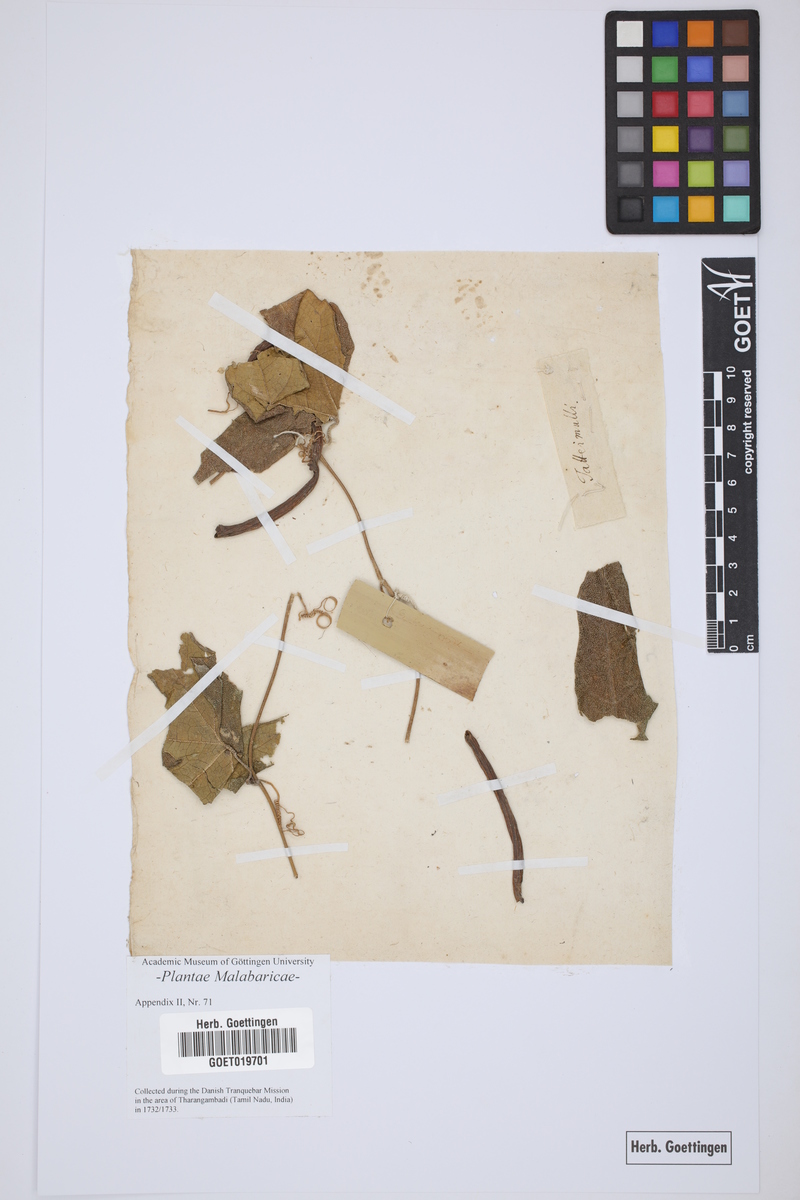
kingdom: Plantae
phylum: Tracheophyta
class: Magnoliopsida
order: Malvales
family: Malvaceae
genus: Abutilon
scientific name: Abutilon mauritianum
